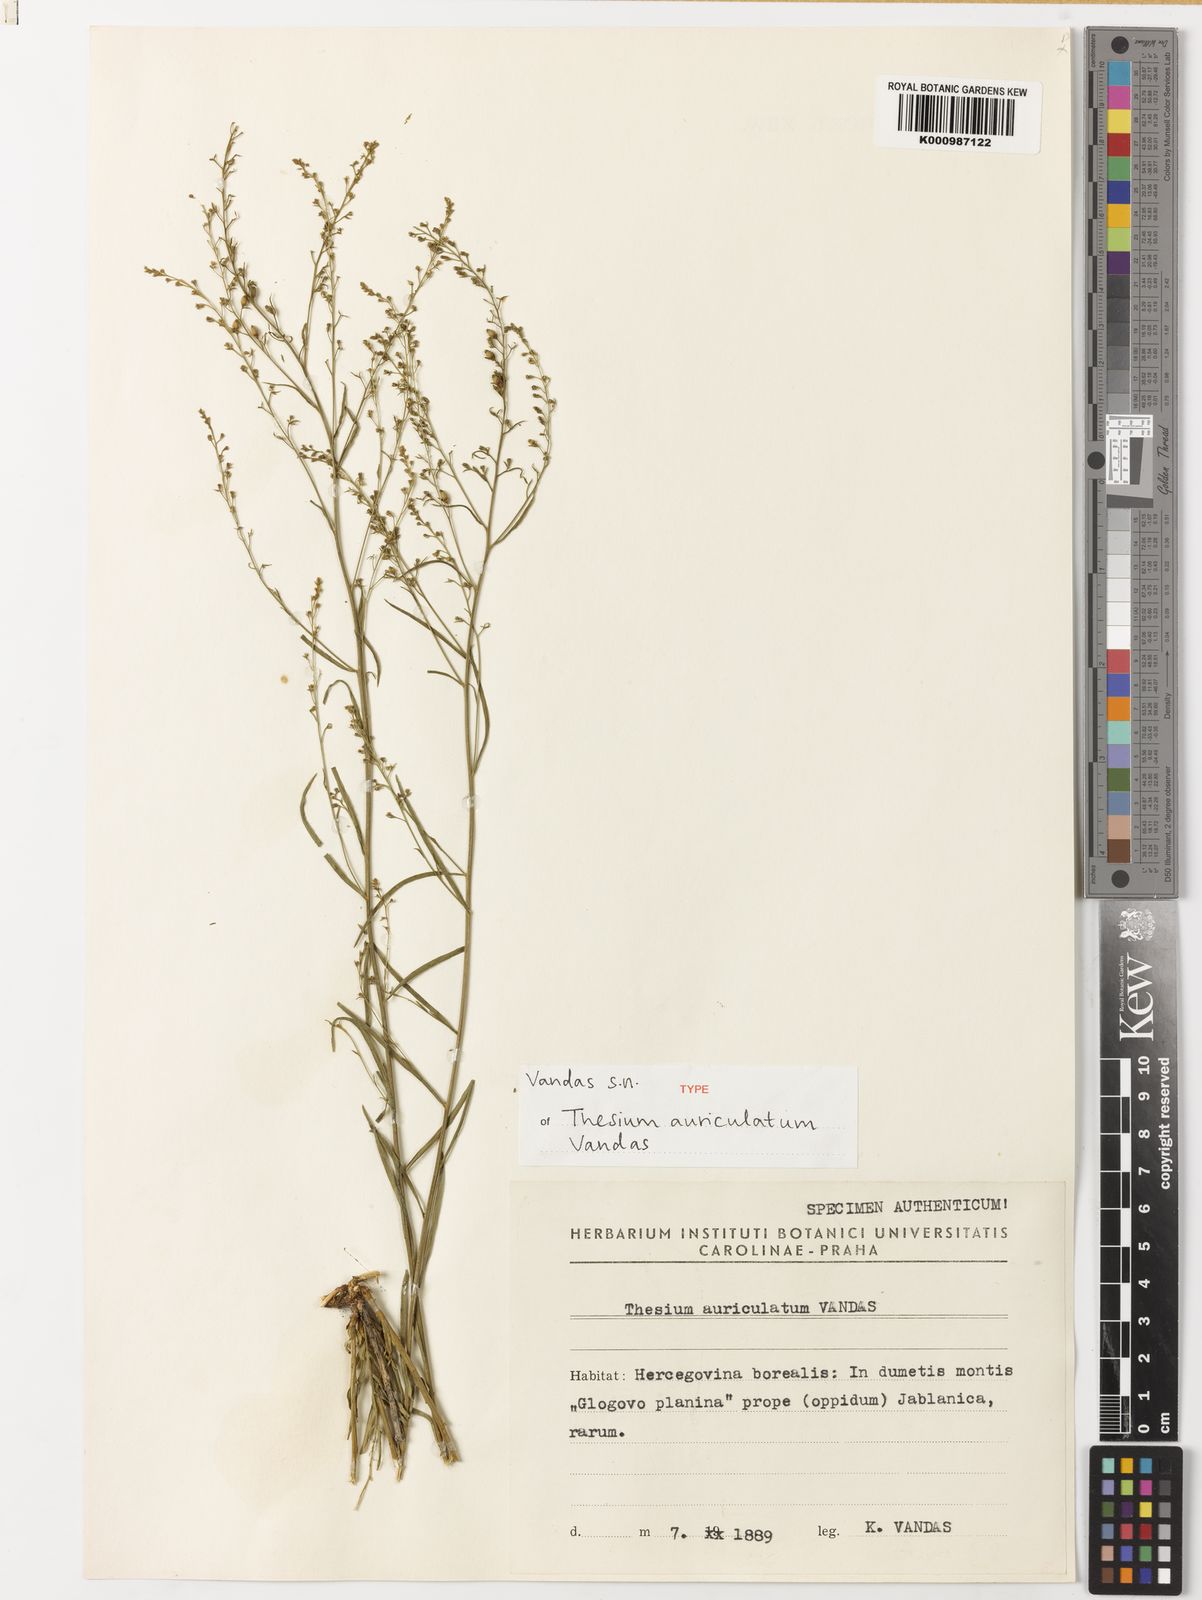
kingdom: Plantae
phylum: Tracheophyta
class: Magnoliopsida
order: Santalales
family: Thesiaceae
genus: Thesium
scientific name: Thesium auriculatum
